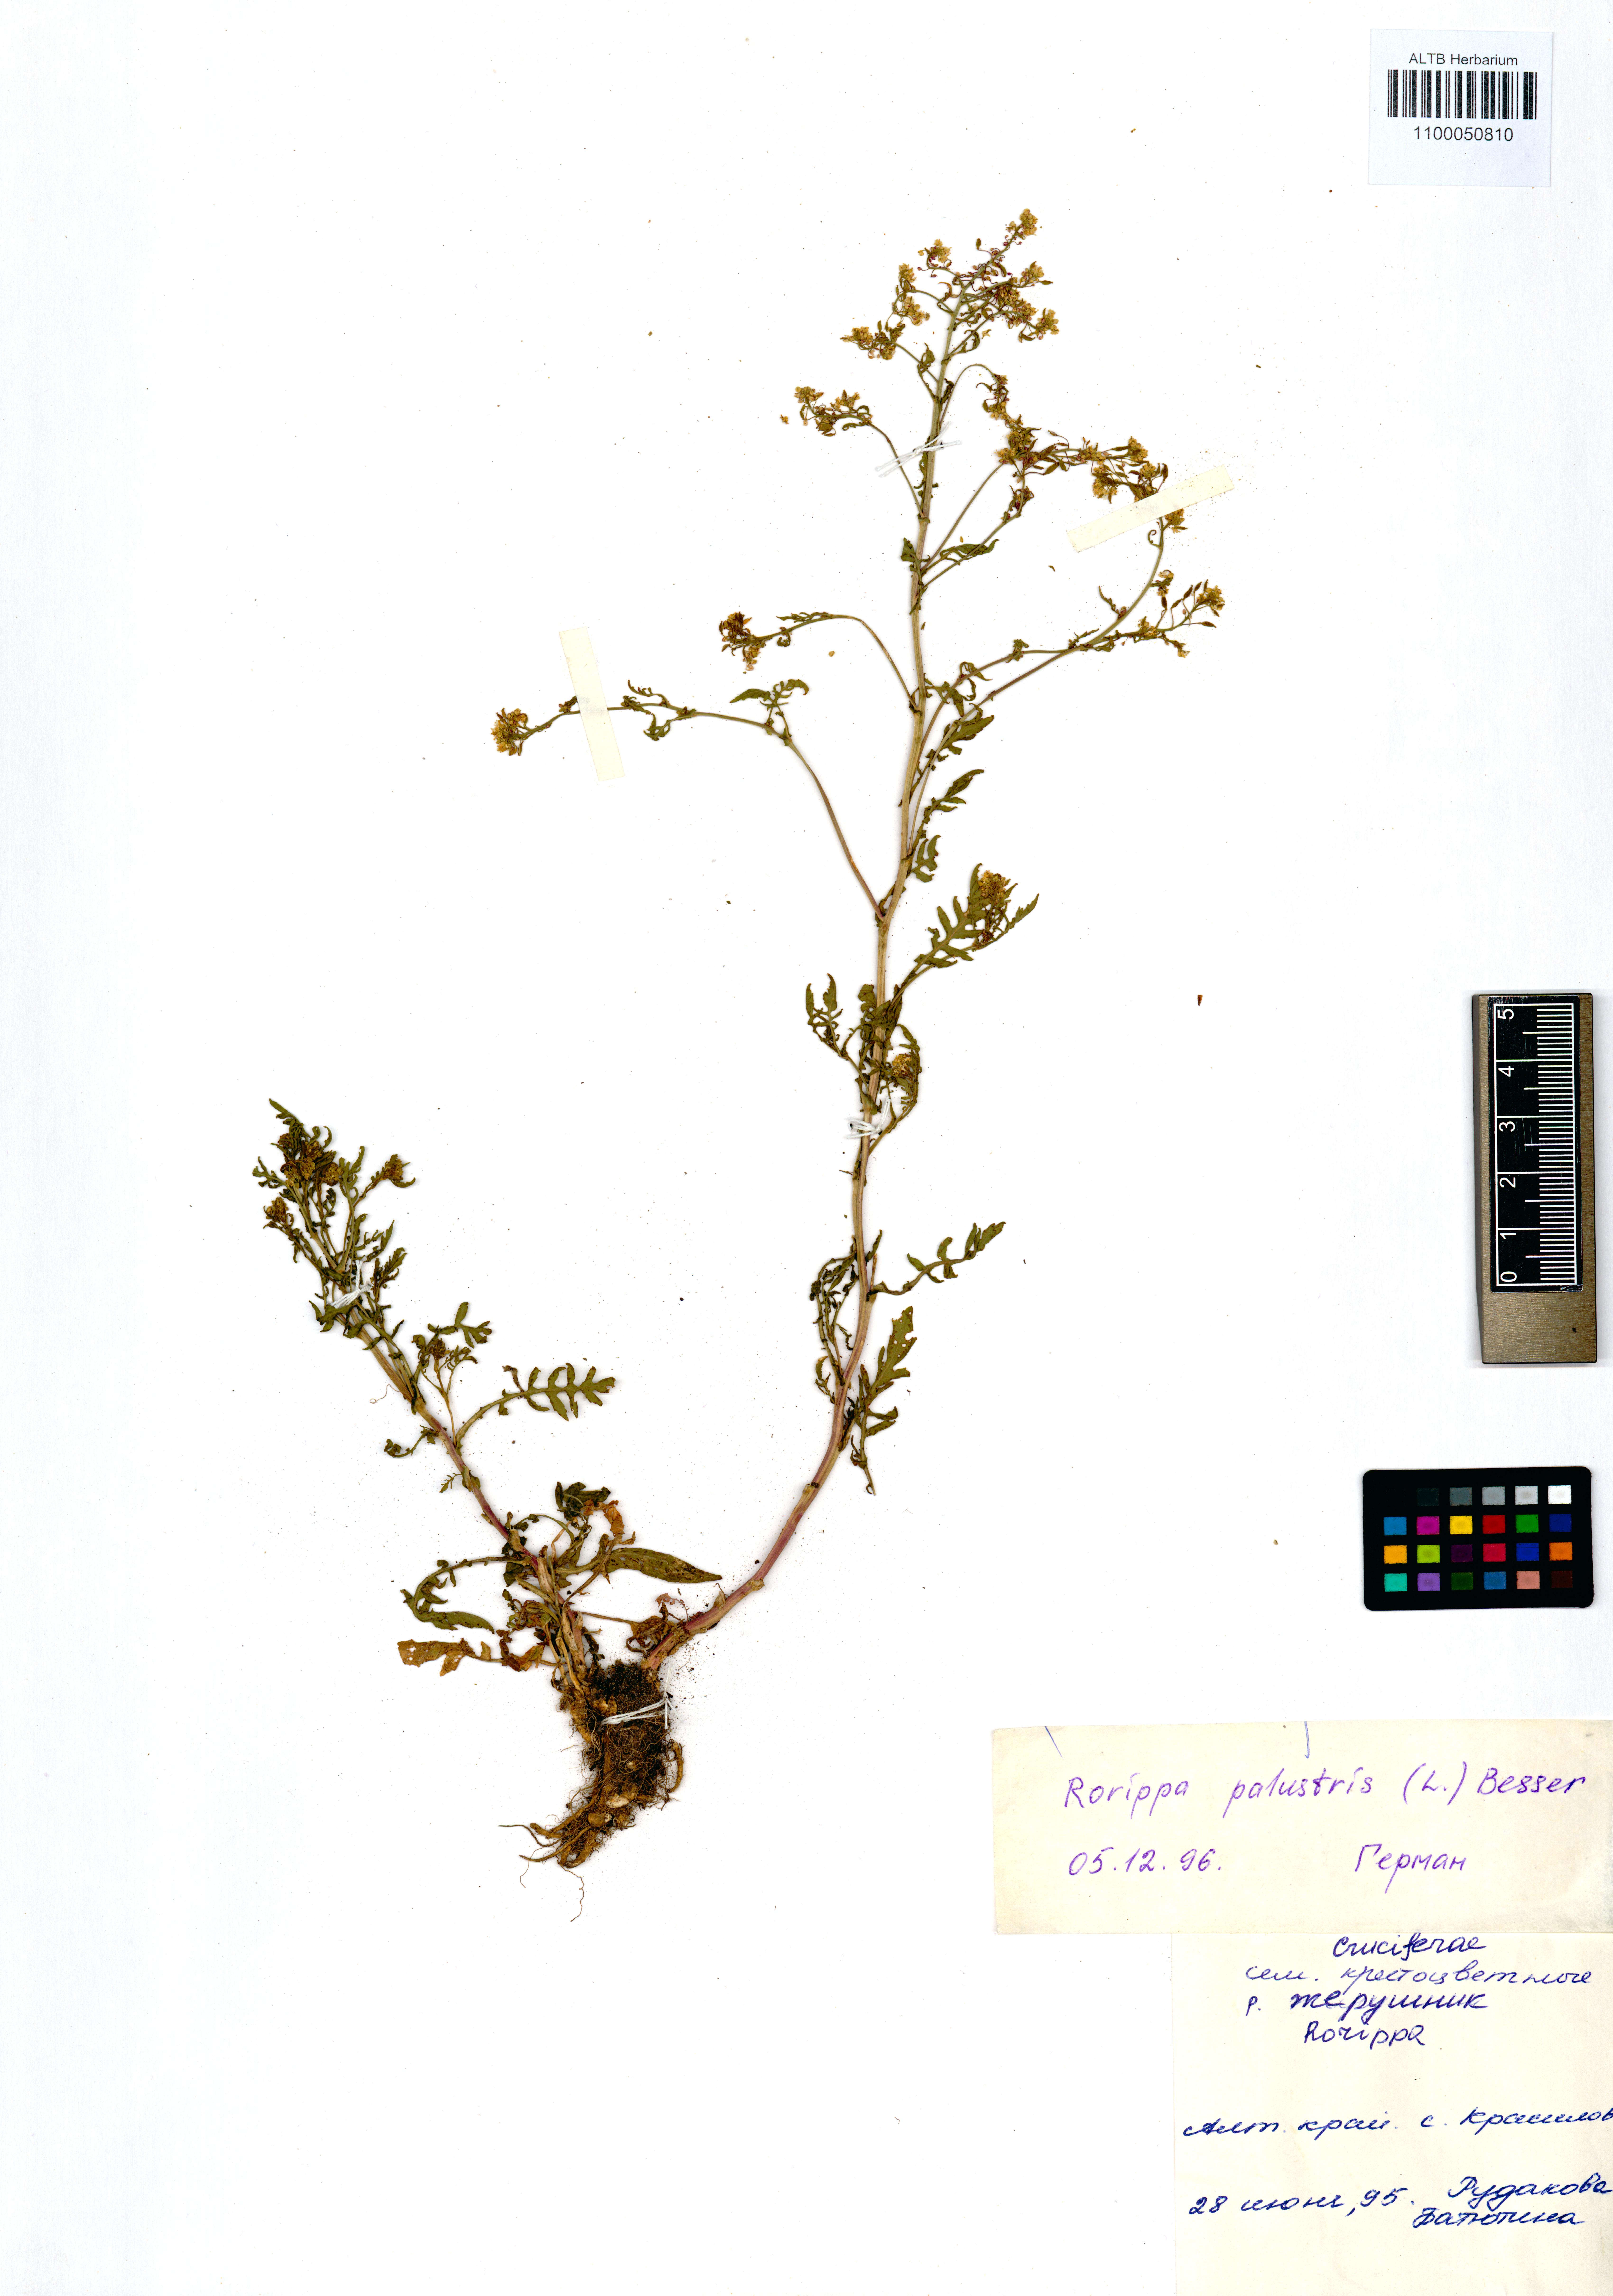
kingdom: Plantae
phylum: Tracheophyta
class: Magnoliopsida
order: Brassicales
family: Brassicaceae
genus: Rorippa
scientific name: Rorippa palustris
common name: Marsh yellow-cress
